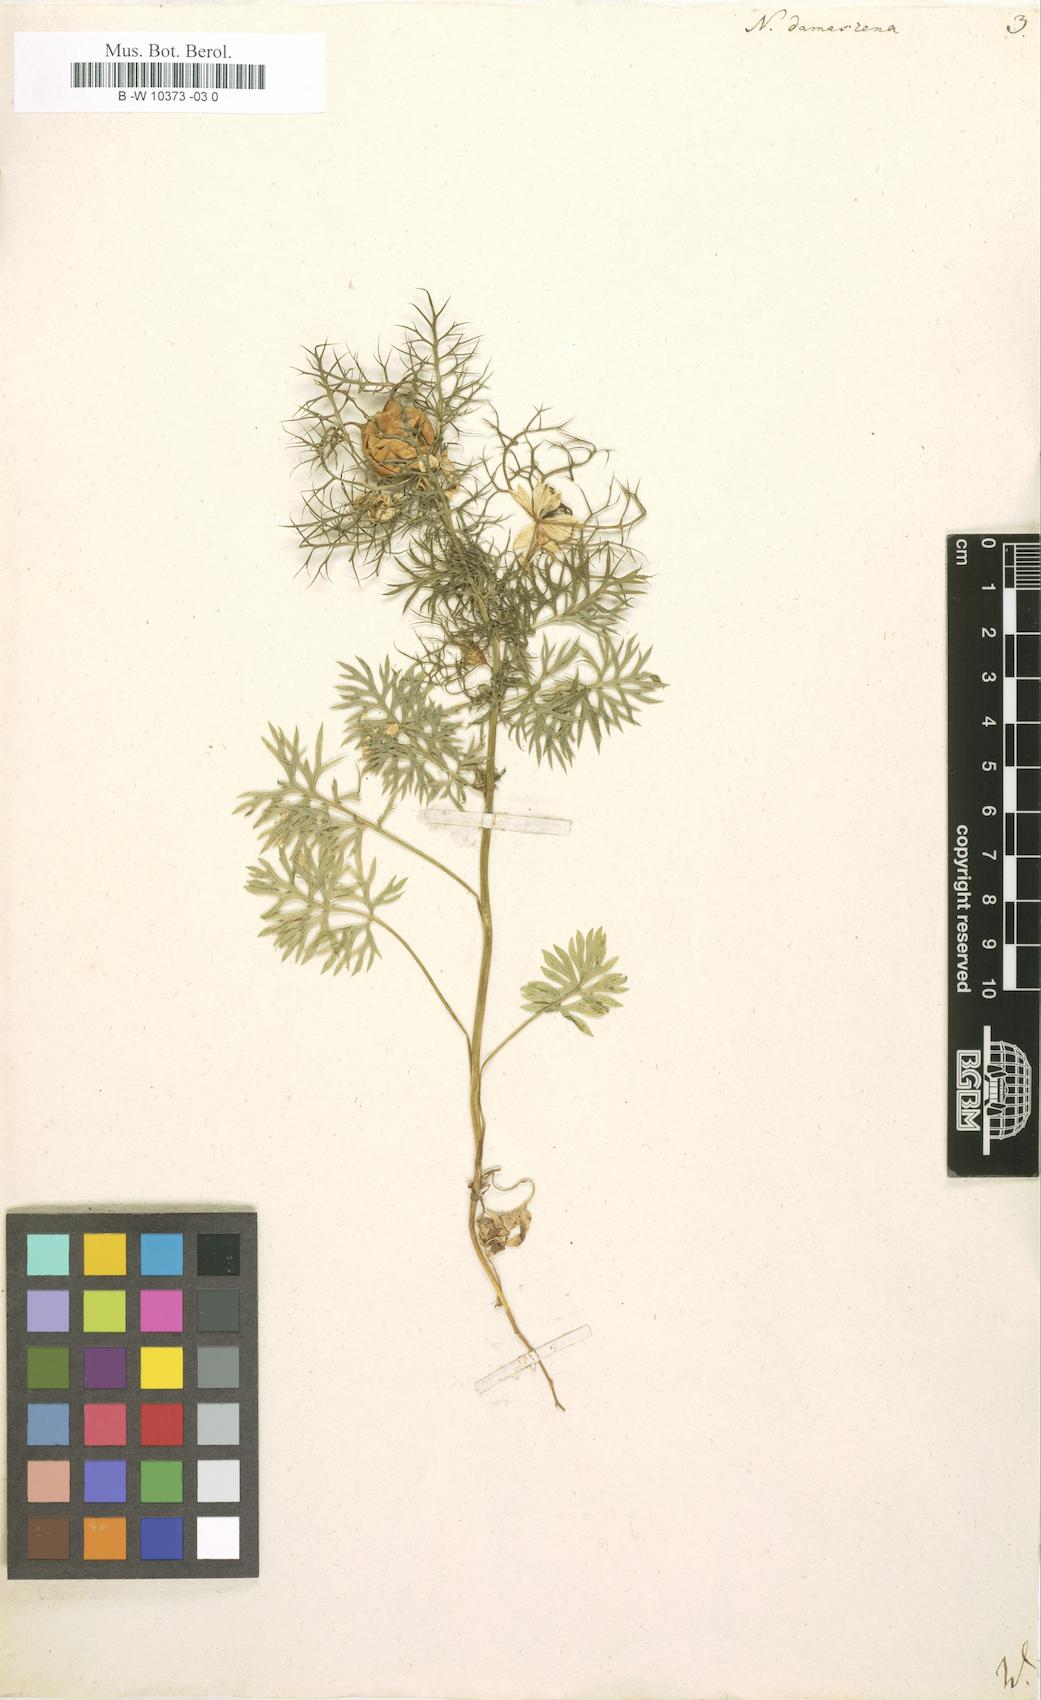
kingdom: Plantae
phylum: Tracheophyta
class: Magnoliopsida
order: Ranunculales
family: Ranunculaceae
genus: Nigella
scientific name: Nigella damascena
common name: Love-in-a-mist
